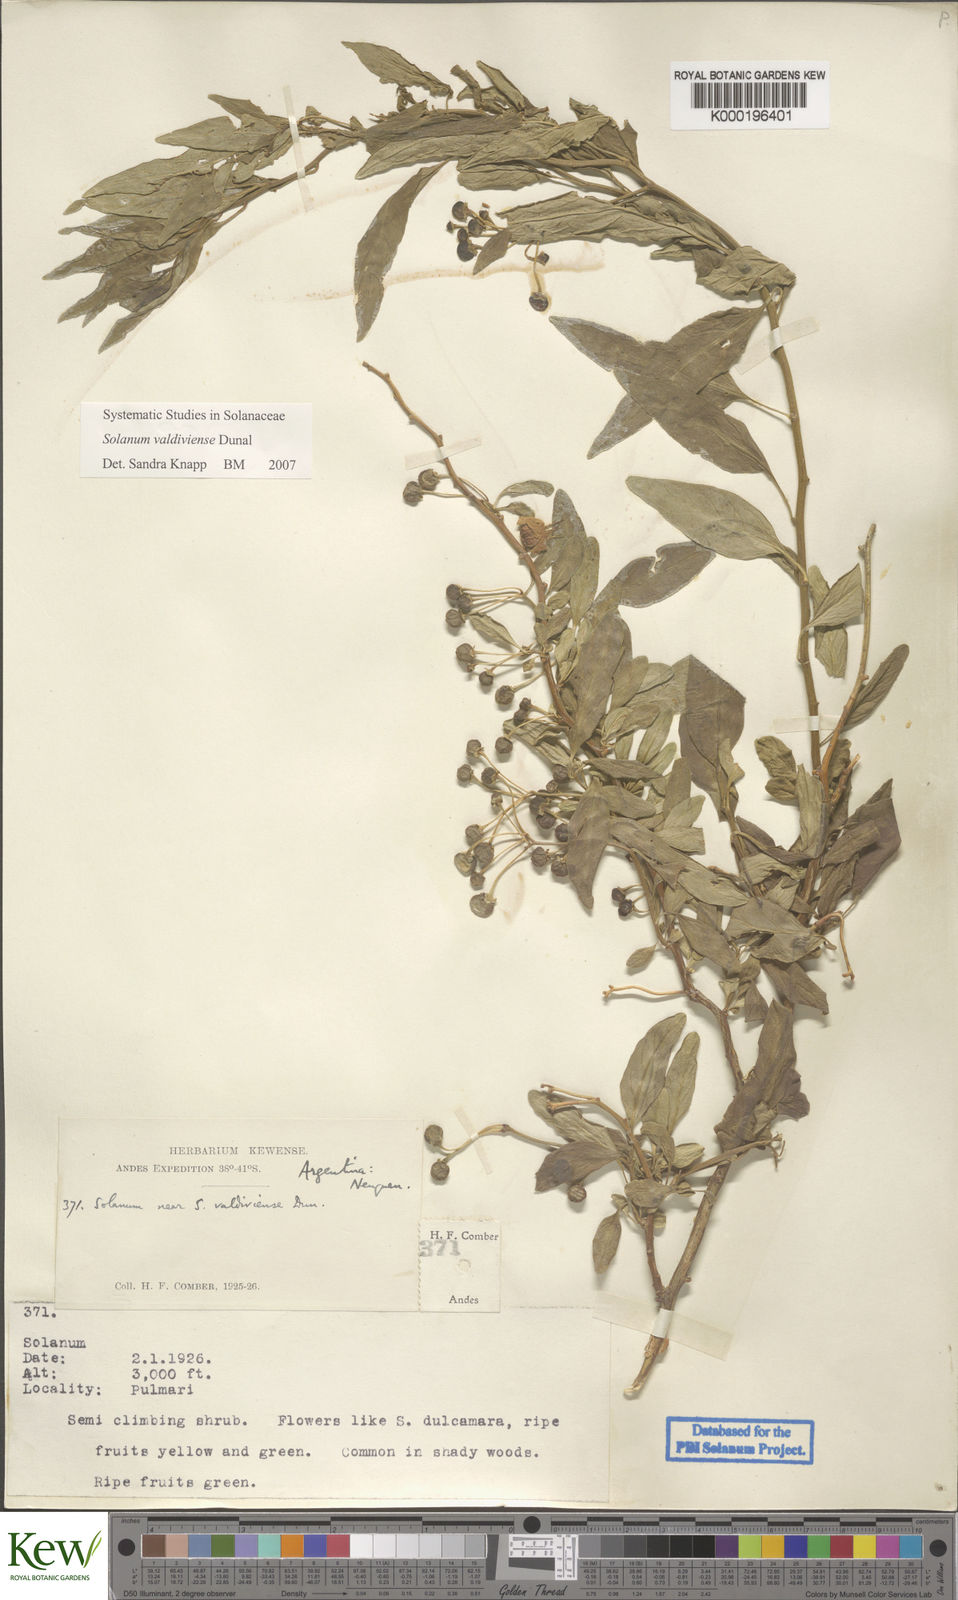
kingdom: Plantae
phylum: Tracheophyta
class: Magnoliopsida
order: Solanales
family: Solanaceae
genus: Solanum
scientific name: Solanum valdiviense
